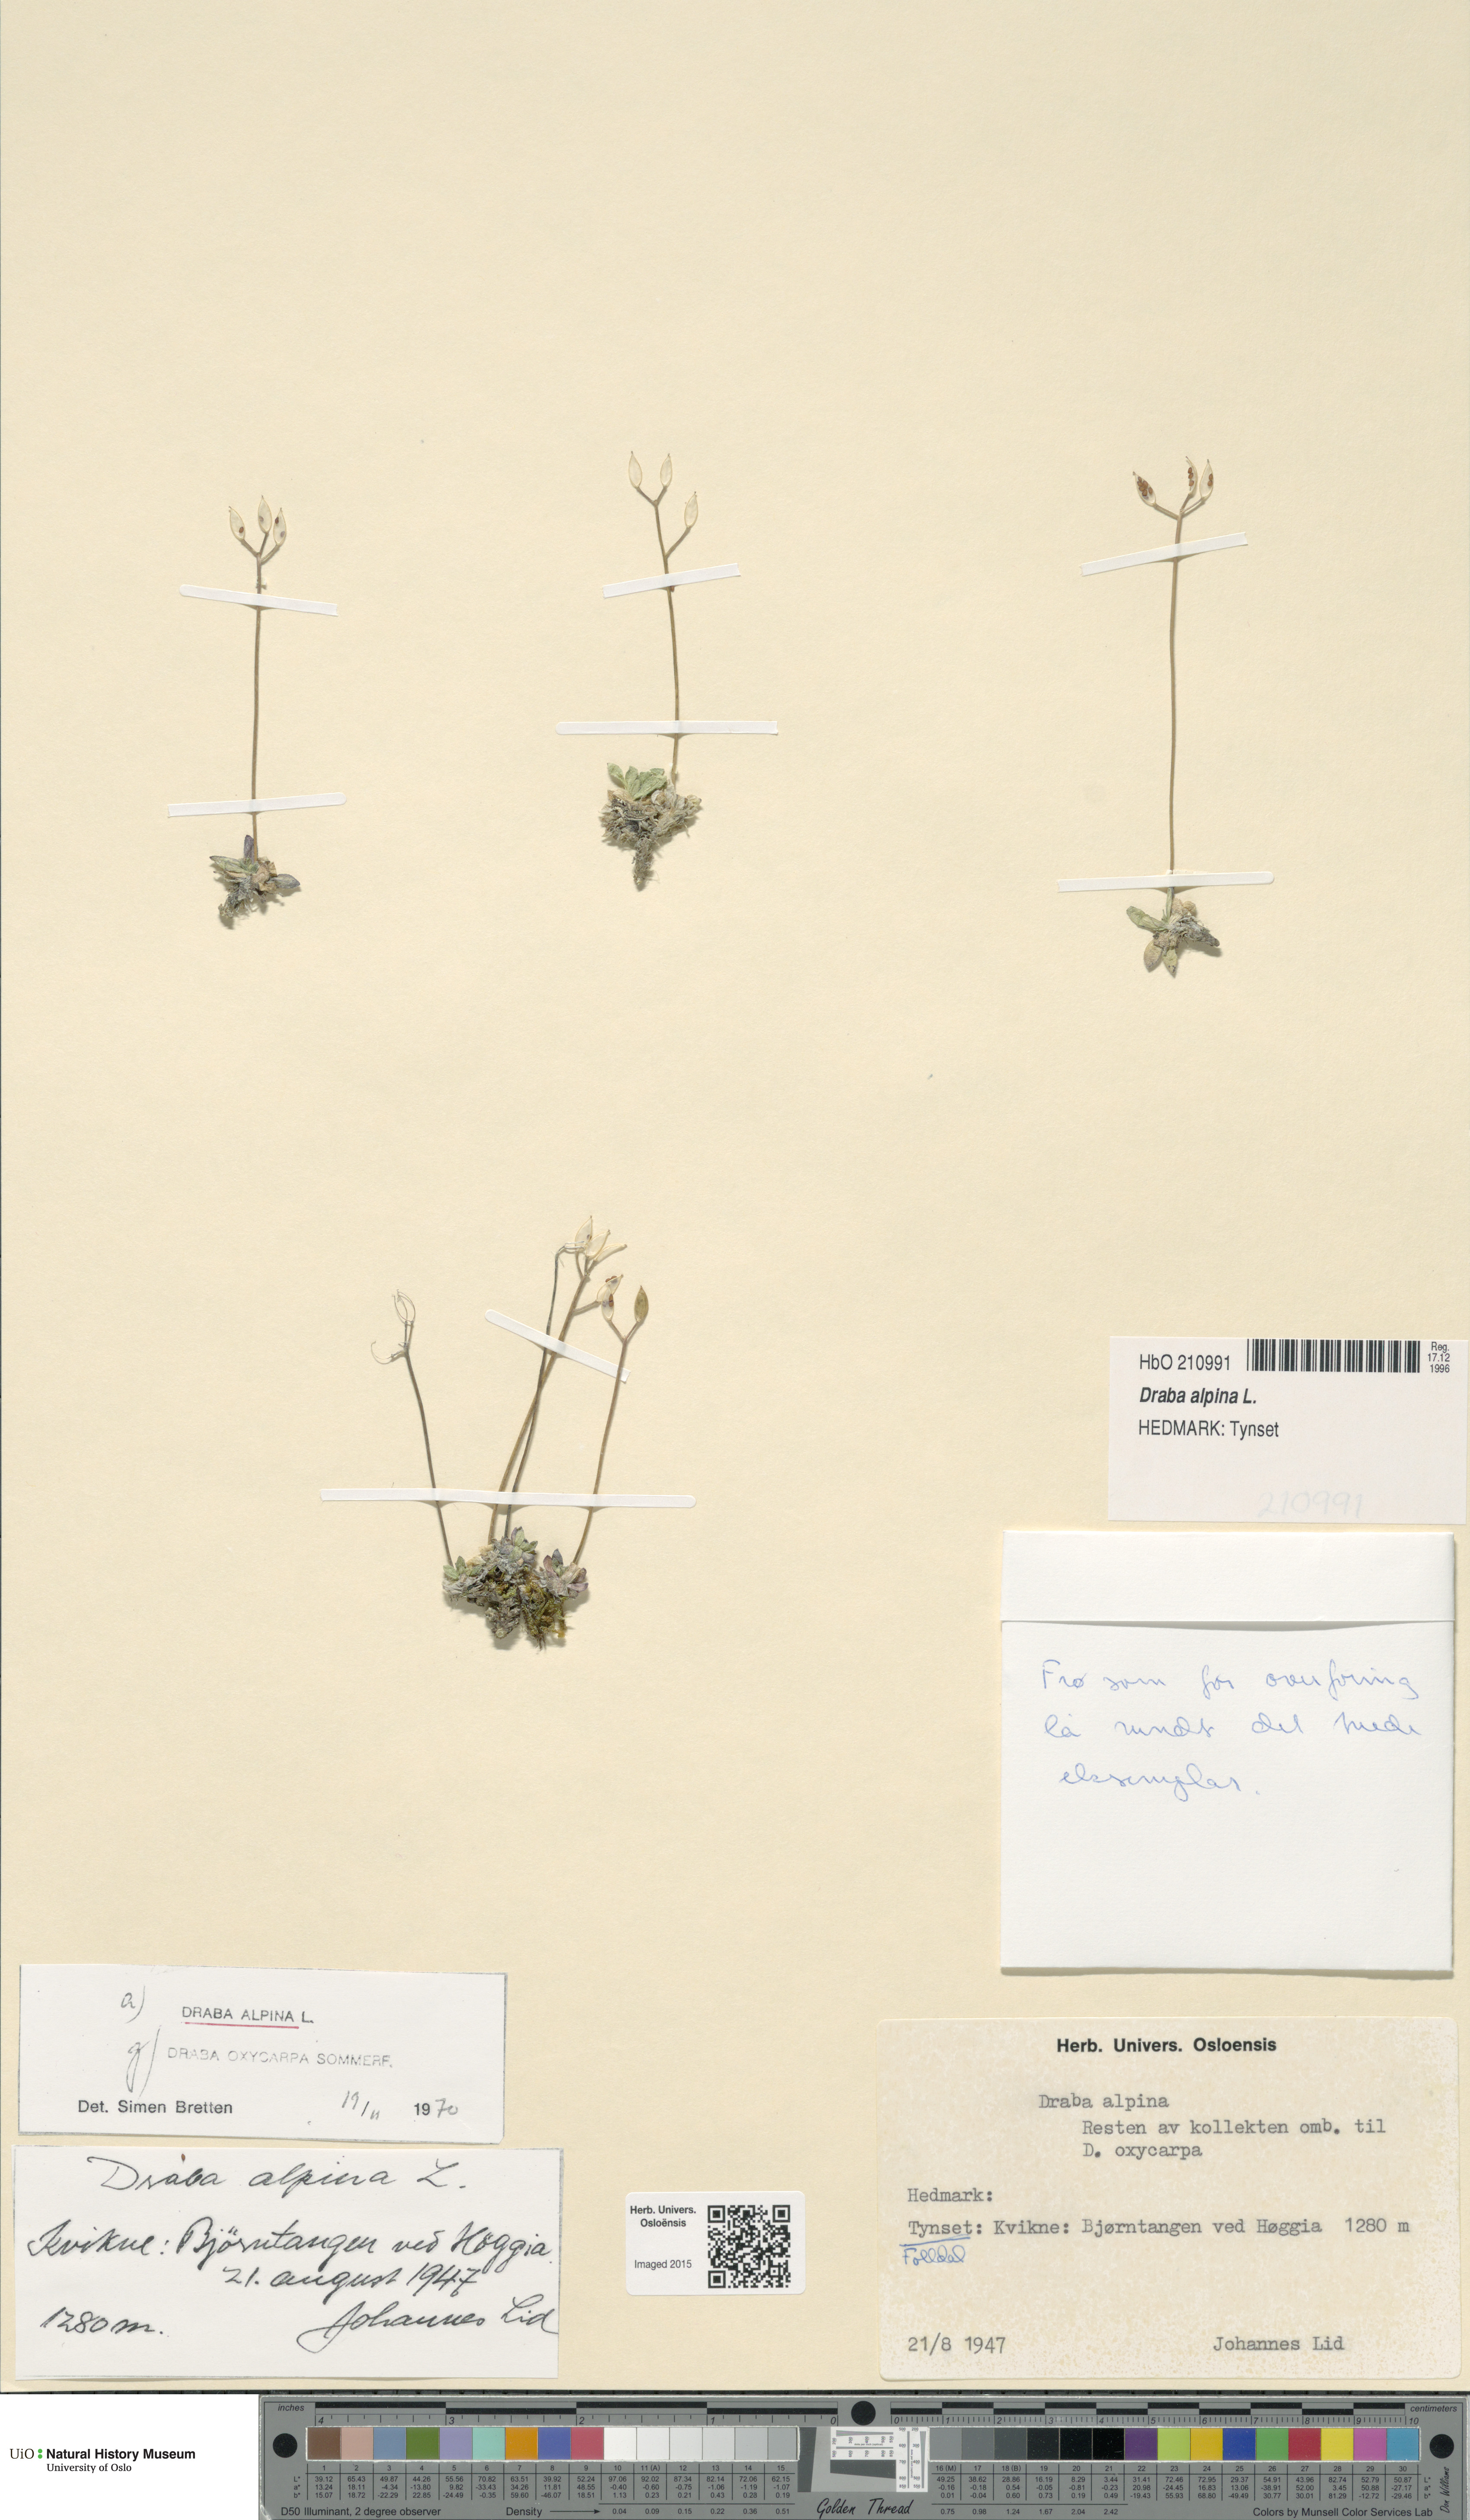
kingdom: Plantae
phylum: Tracheophyta
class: Magnoliopsida
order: Brassicales
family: Brassicaceae
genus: Draba
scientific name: Draba alpina
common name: Alpine draba
